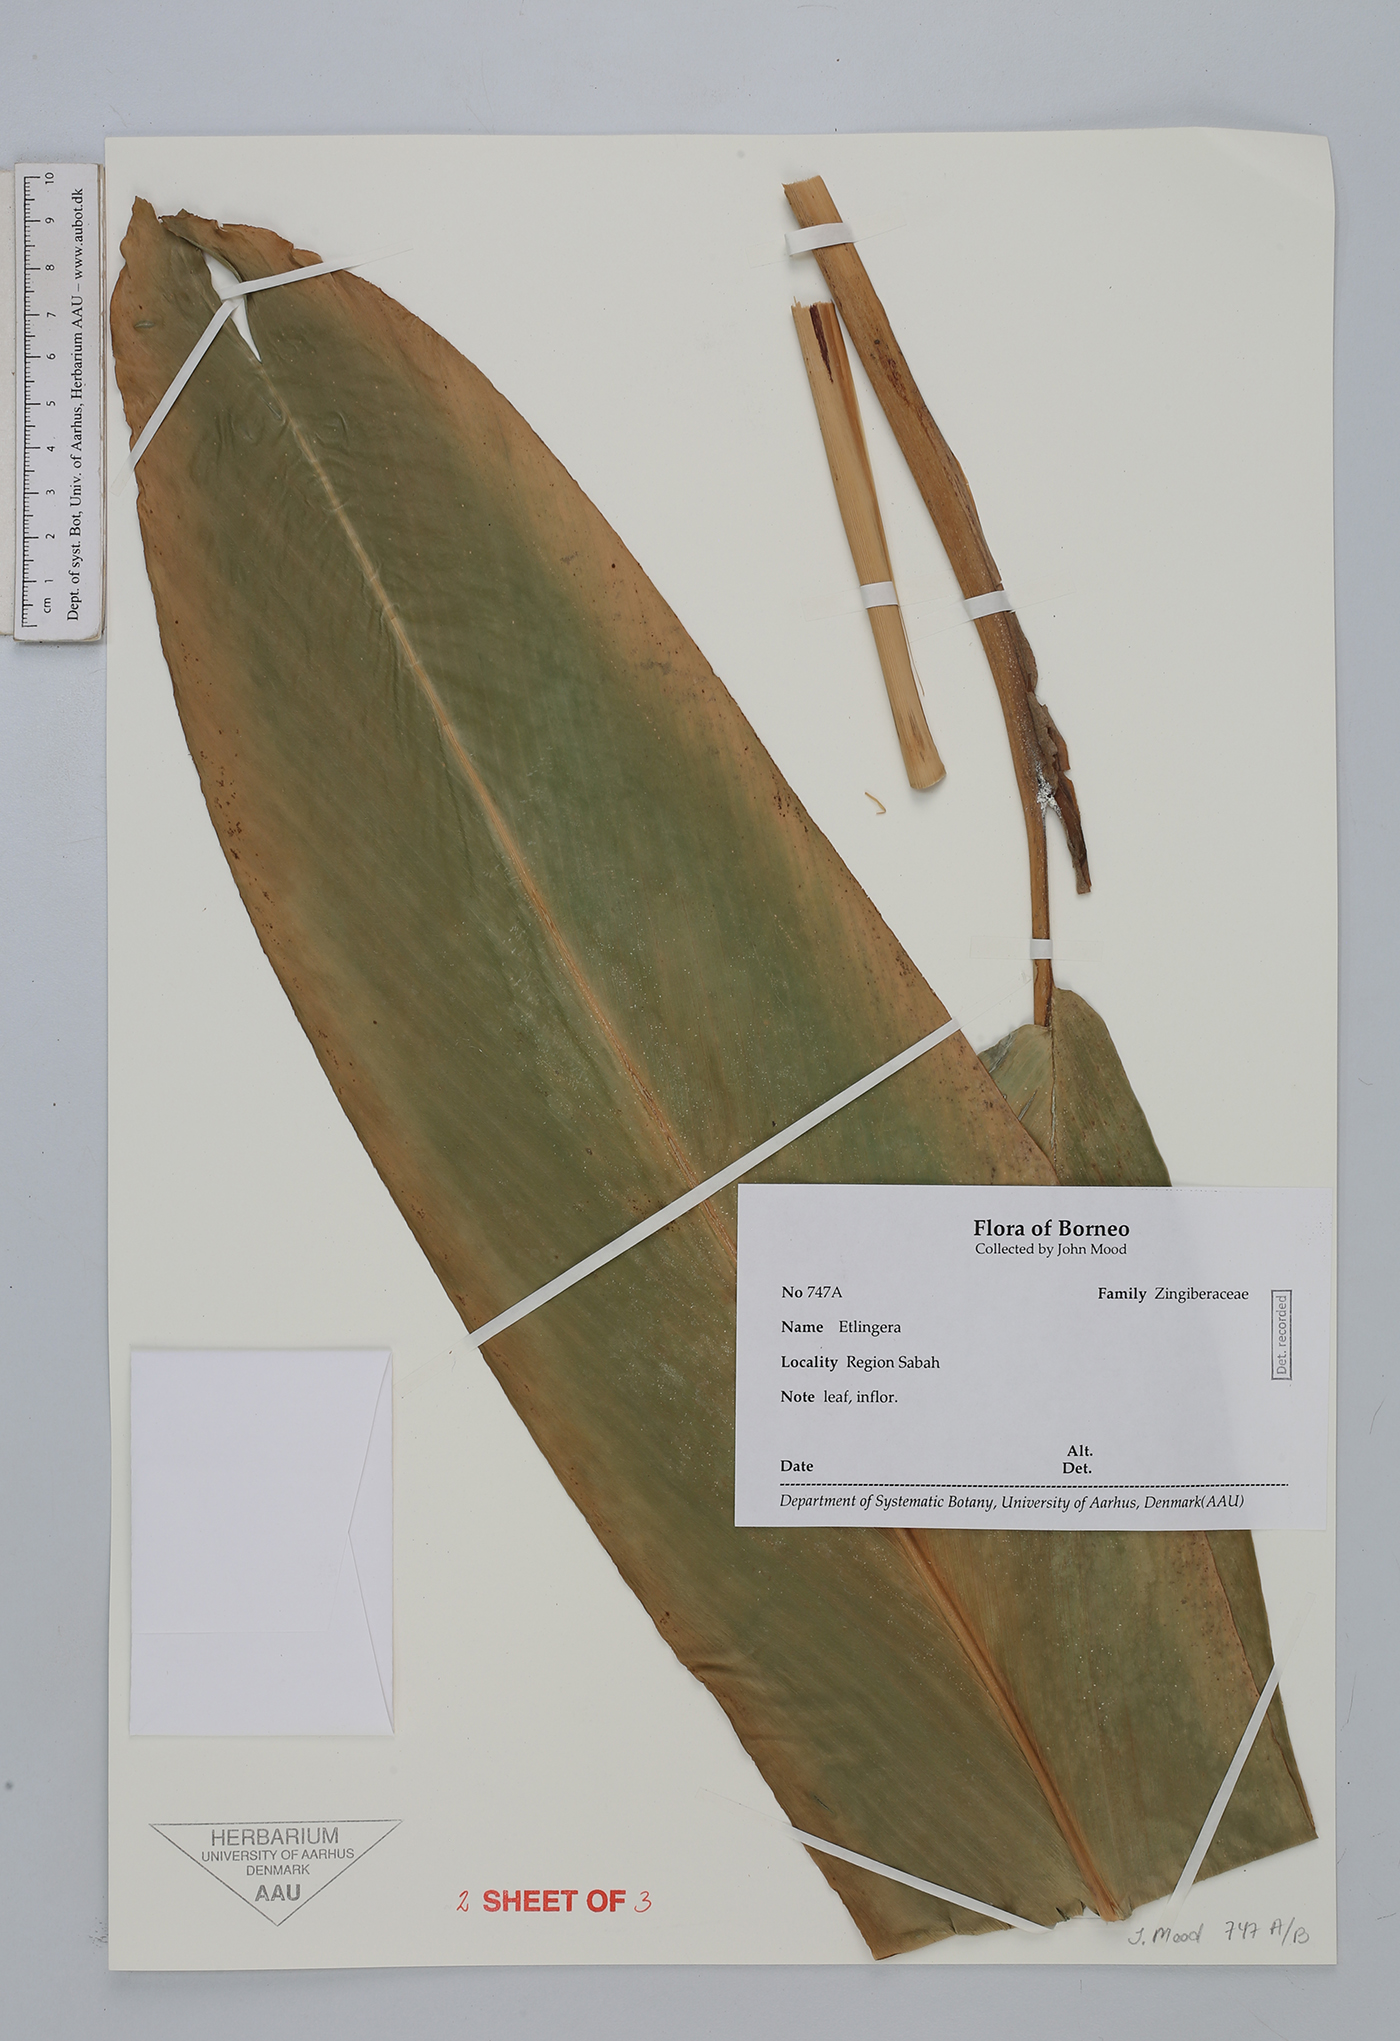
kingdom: Plantae
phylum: Tracheophyta
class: Liliopsida
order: Zingiberales
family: Zingiberaceae
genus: Etlingera
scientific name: Etlingera
